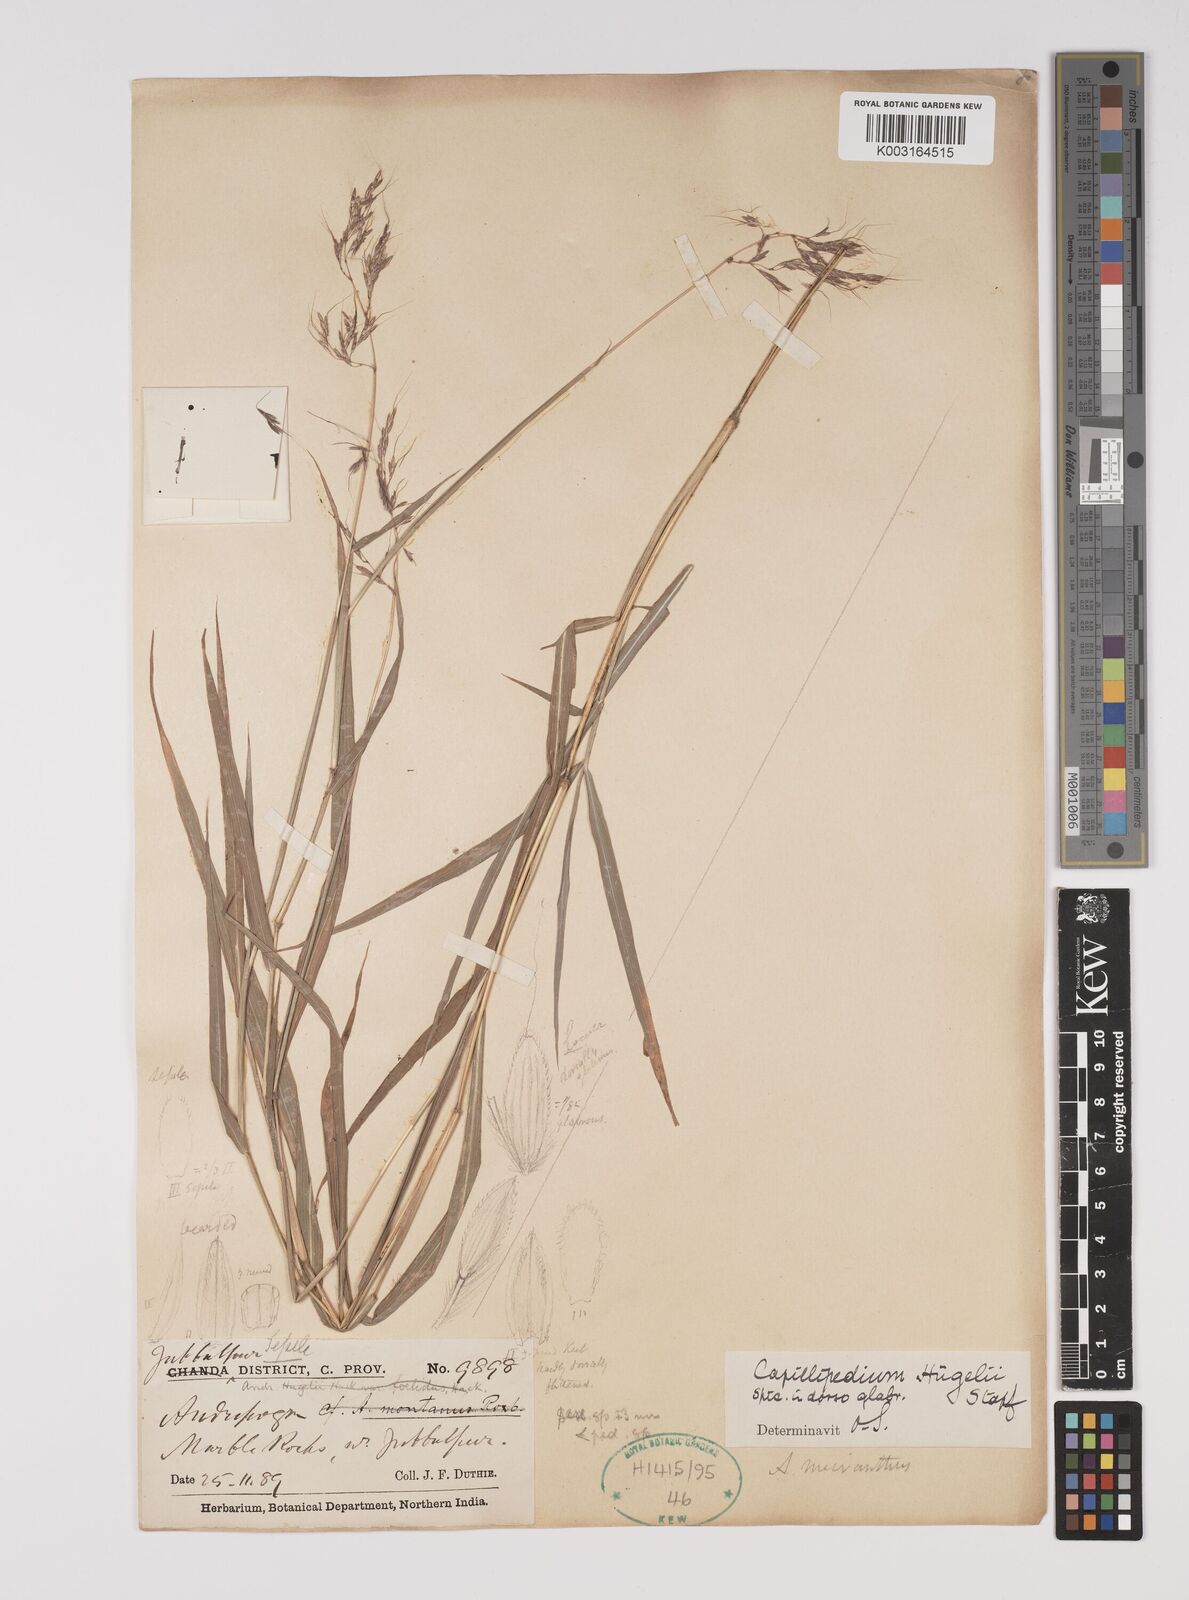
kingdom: Plantae
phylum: Tracheophyta
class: Liliopsida
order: Poales
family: Poaceae
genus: Capillipedium
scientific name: Capillipedium huegelii
